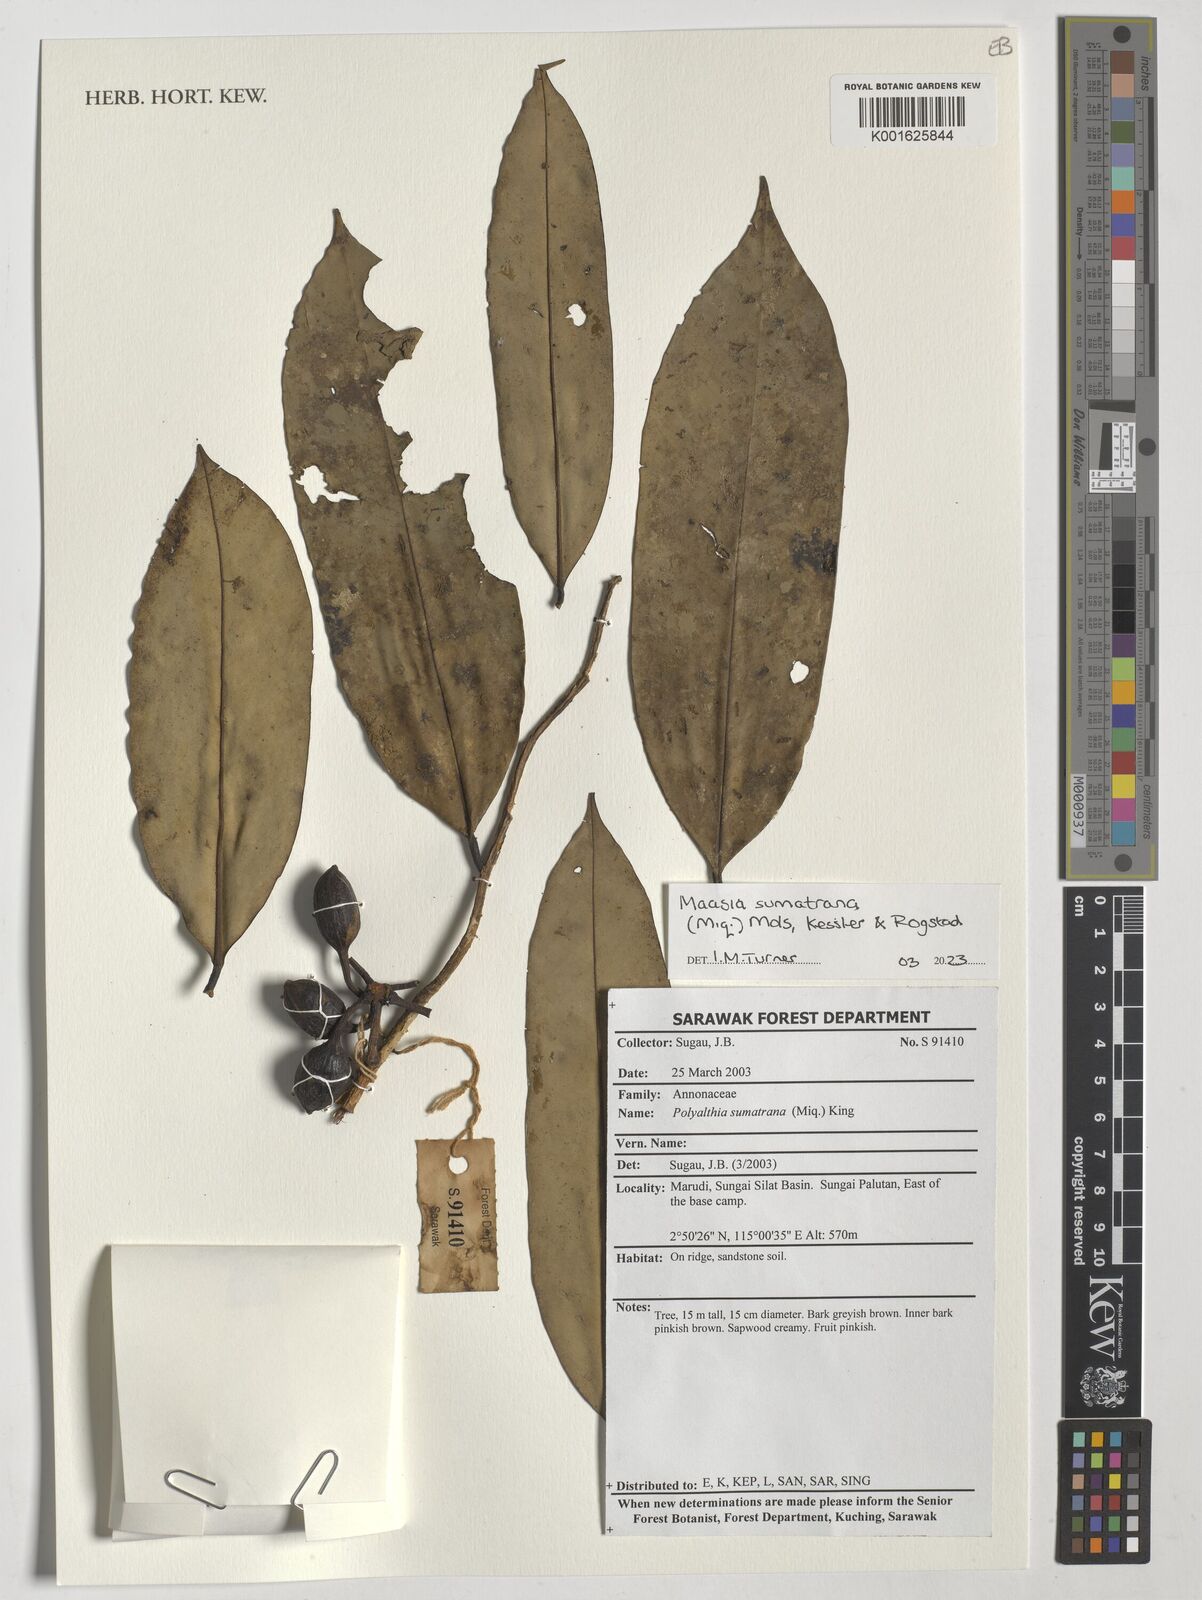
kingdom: Plantae
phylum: Tracheophyta
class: Magnoliopsida
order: Magnoliales
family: Annonaceae
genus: Maasia
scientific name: Maasia sumatrana
